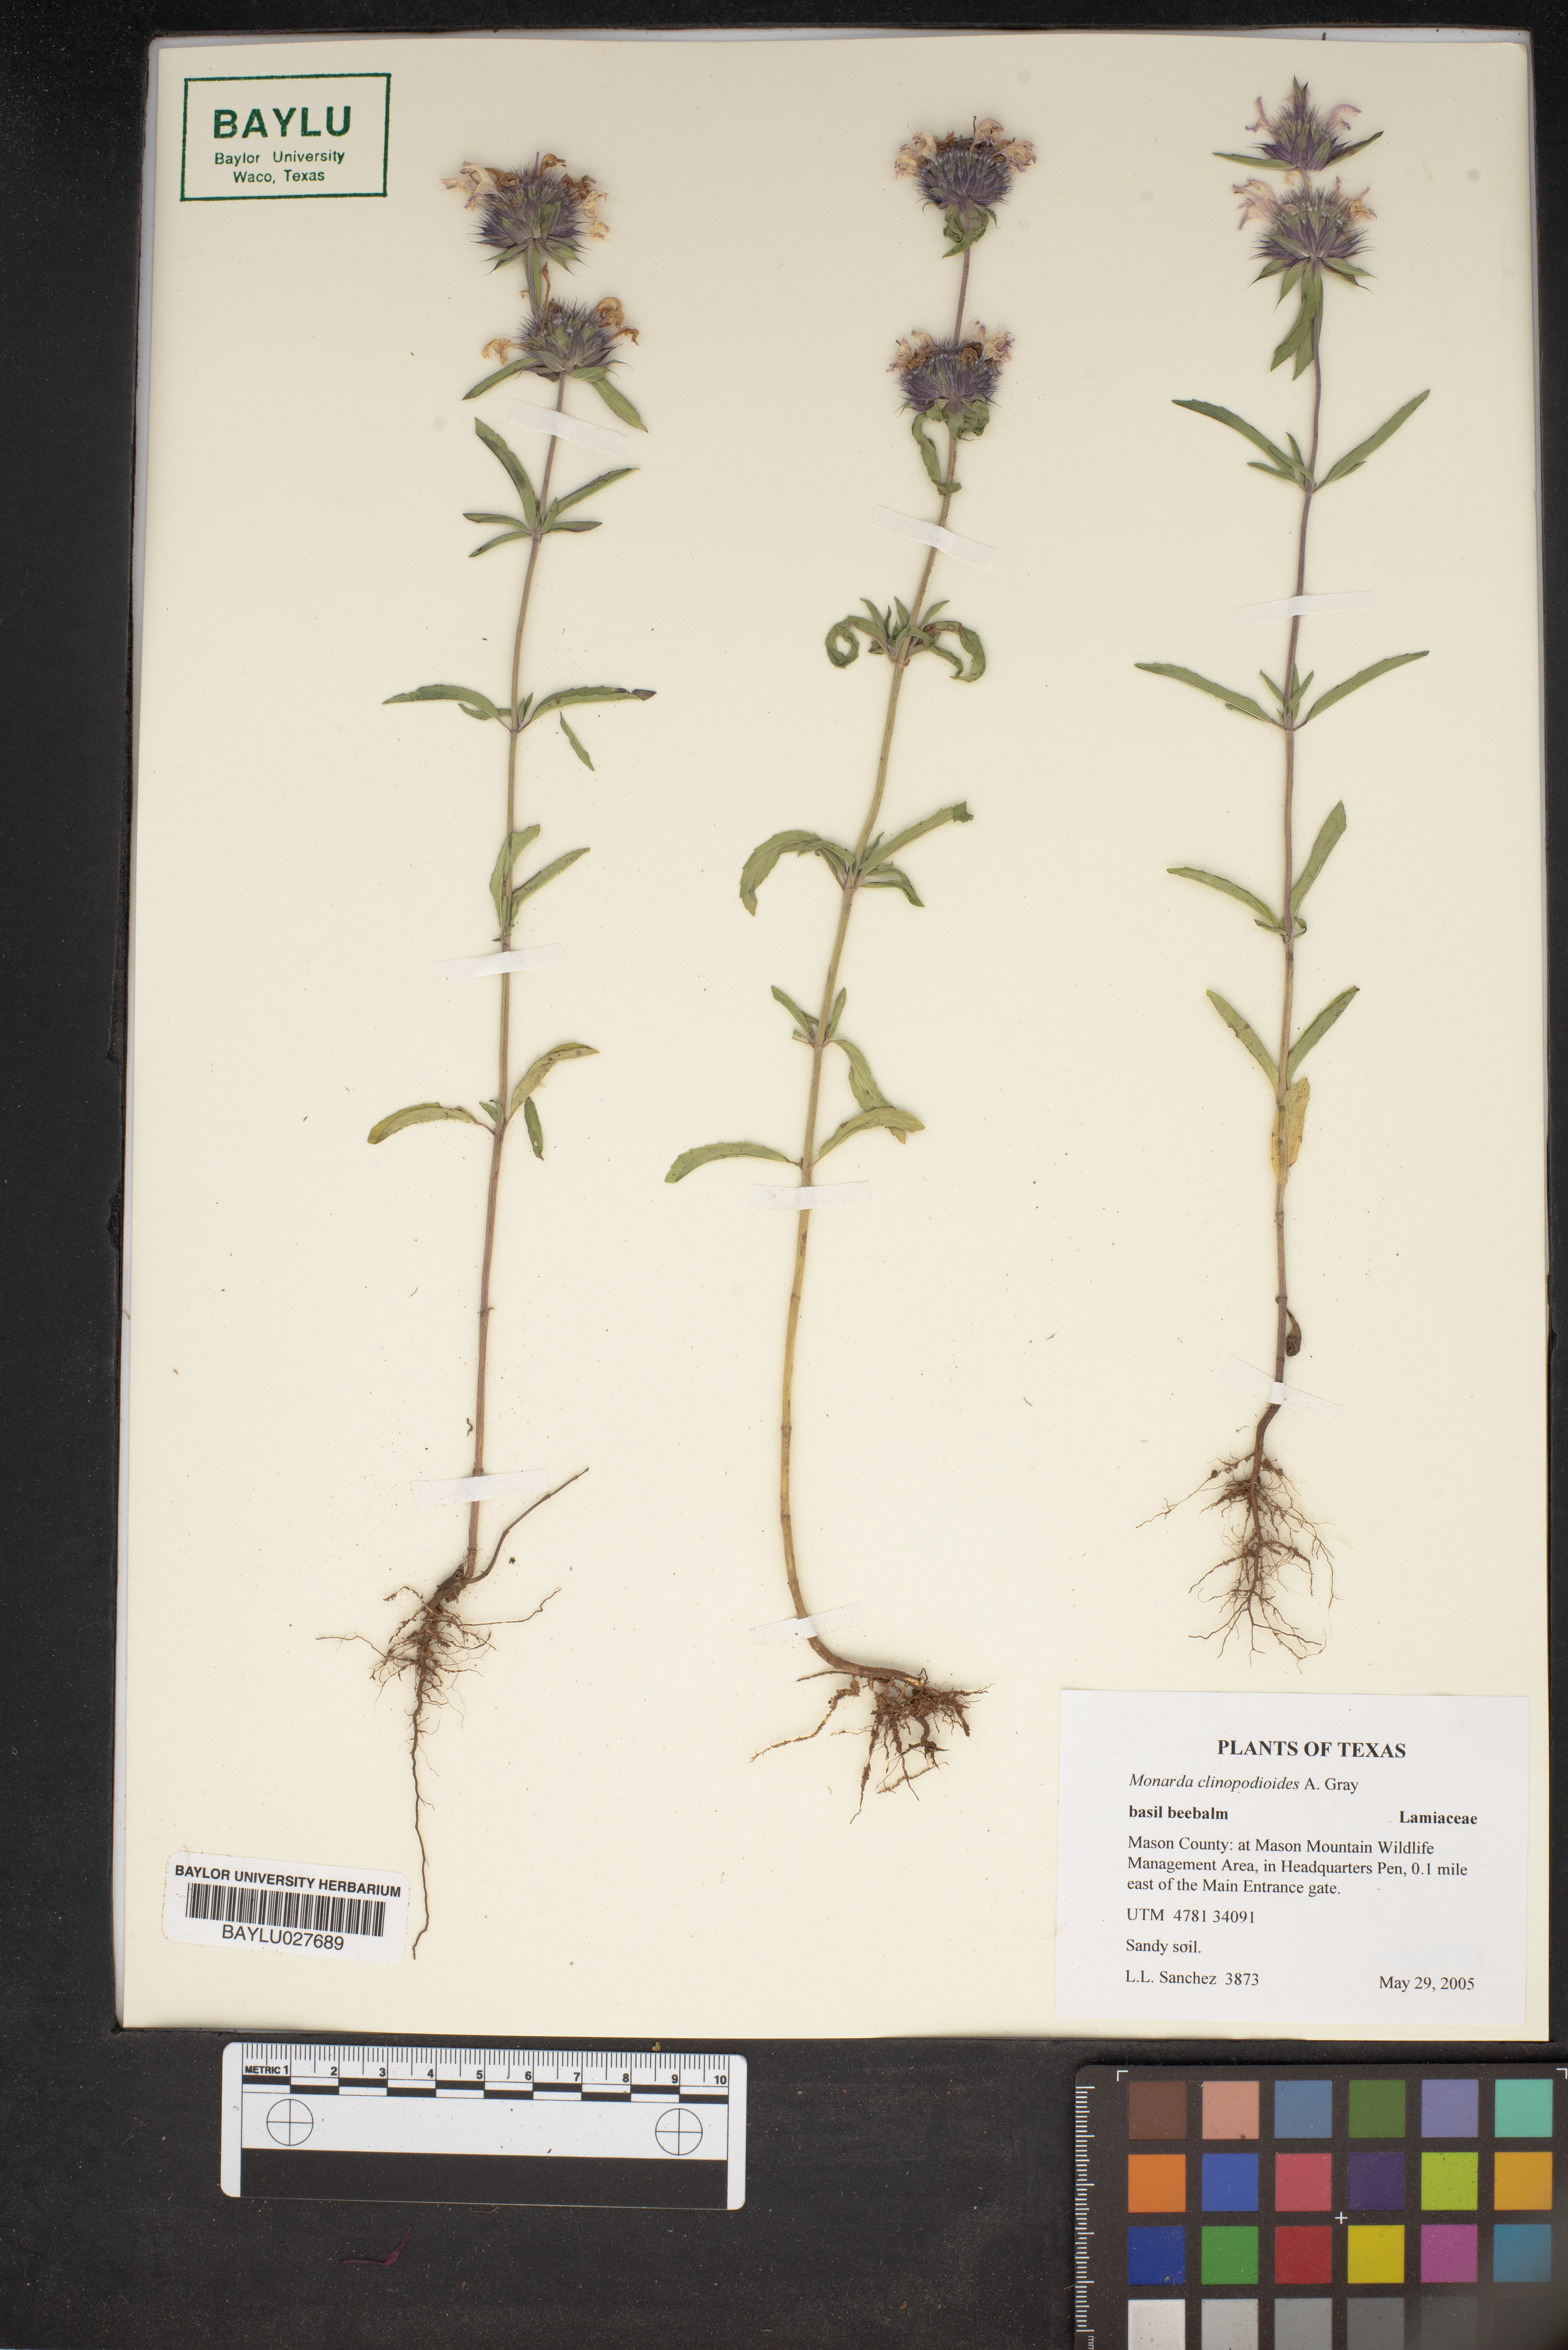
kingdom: Plantae
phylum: Tracheophyta
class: Magnoliopsida
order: Lamiales
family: Lamiaceae
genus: Monarda
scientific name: Monarda clinopodioides
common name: Basil beebalm
